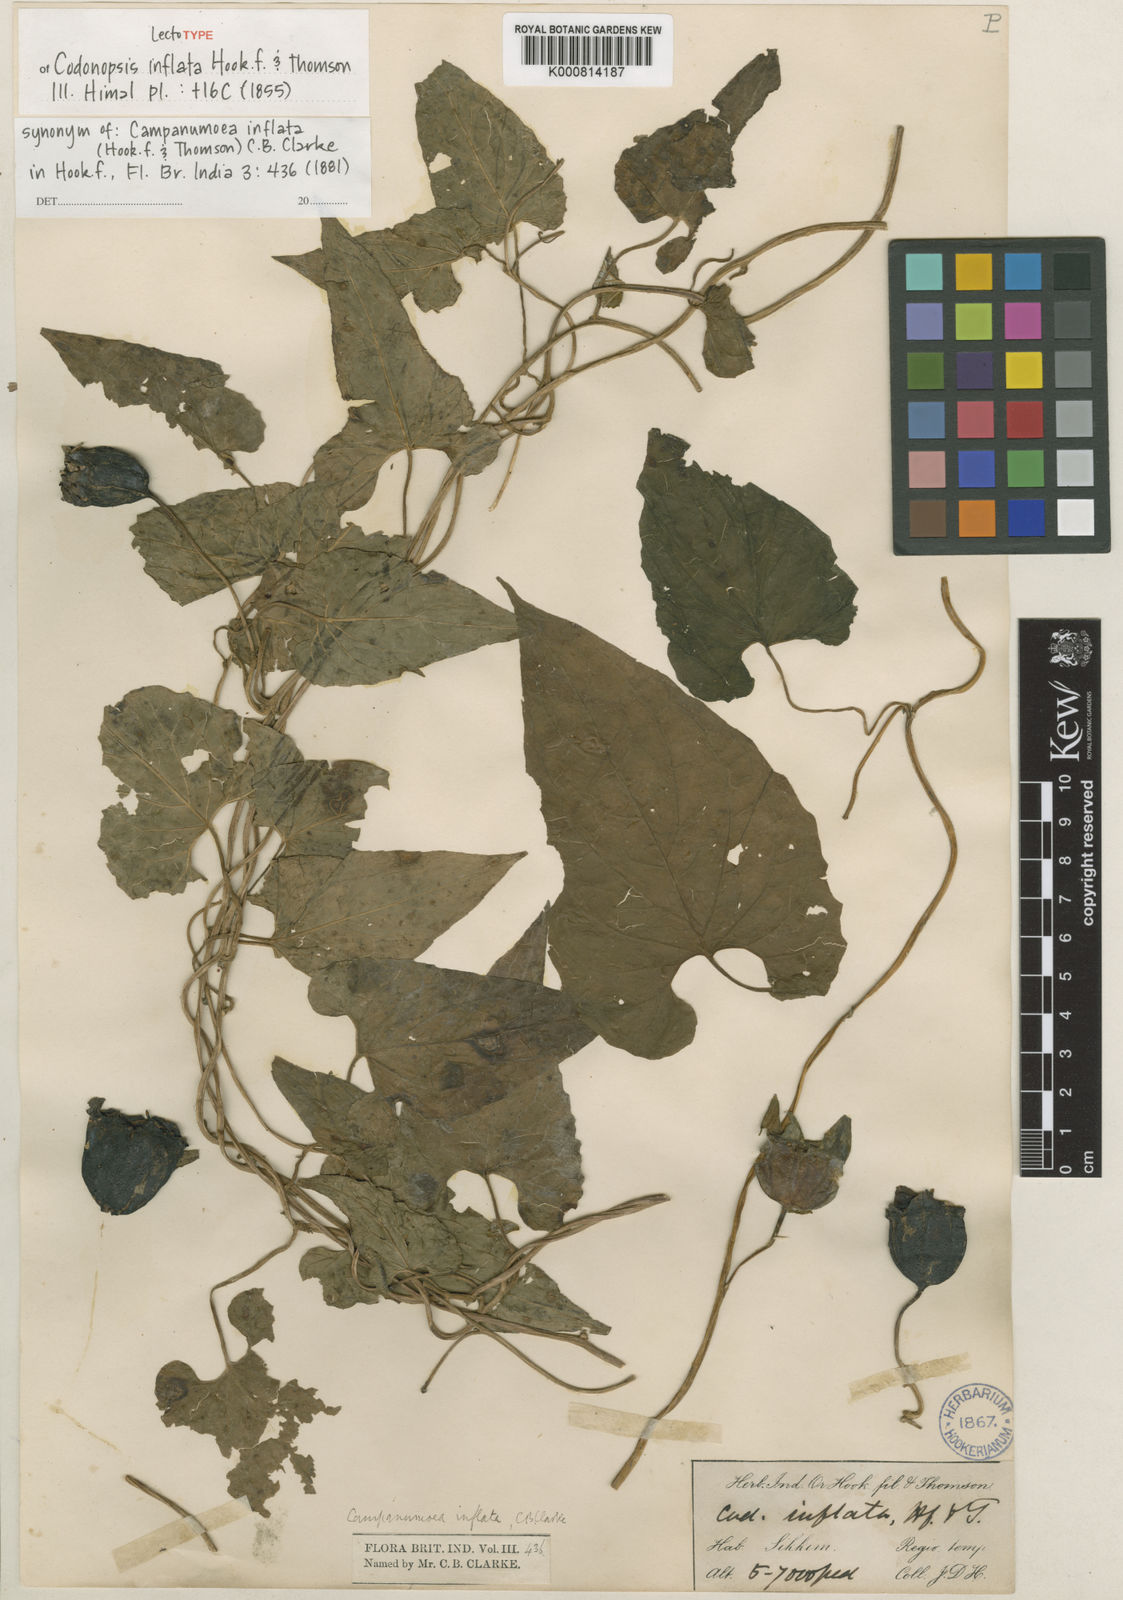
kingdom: Plantae
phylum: Tracheophyta
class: Magnoliopsida
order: Asterales
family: Campanulaceae
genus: Codonopsis
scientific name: Codonopsis inflata
